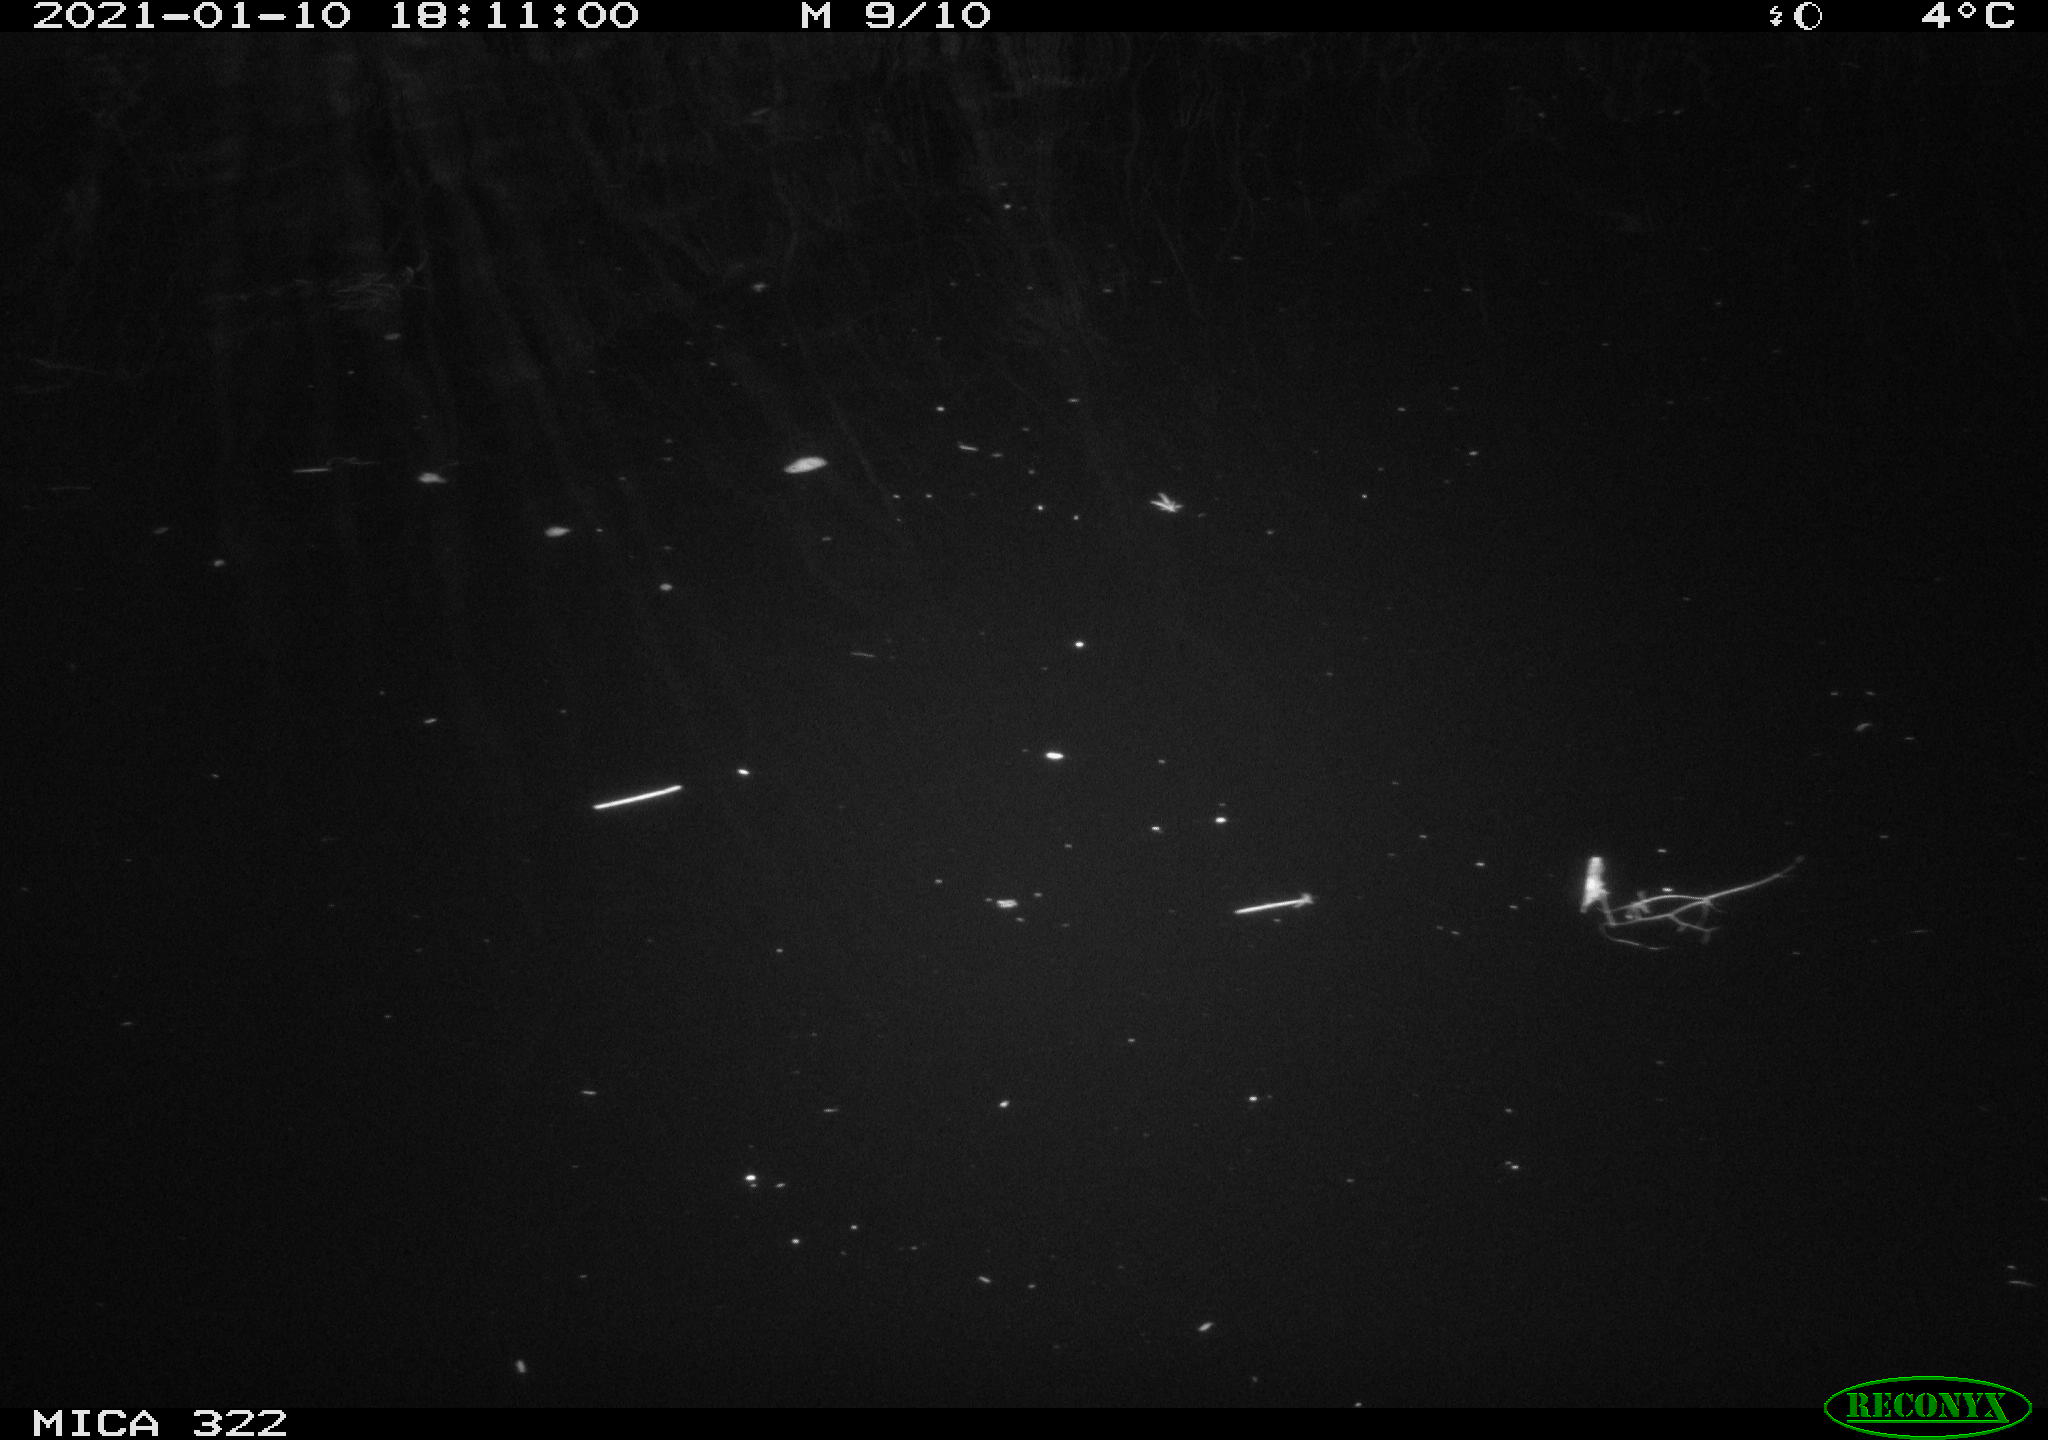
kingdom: Animalia
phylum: Chordata
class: Mammalia
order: Rodentia
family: Muridae
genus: Rattus
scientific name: Rattus norvegicus
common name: Brown rat
